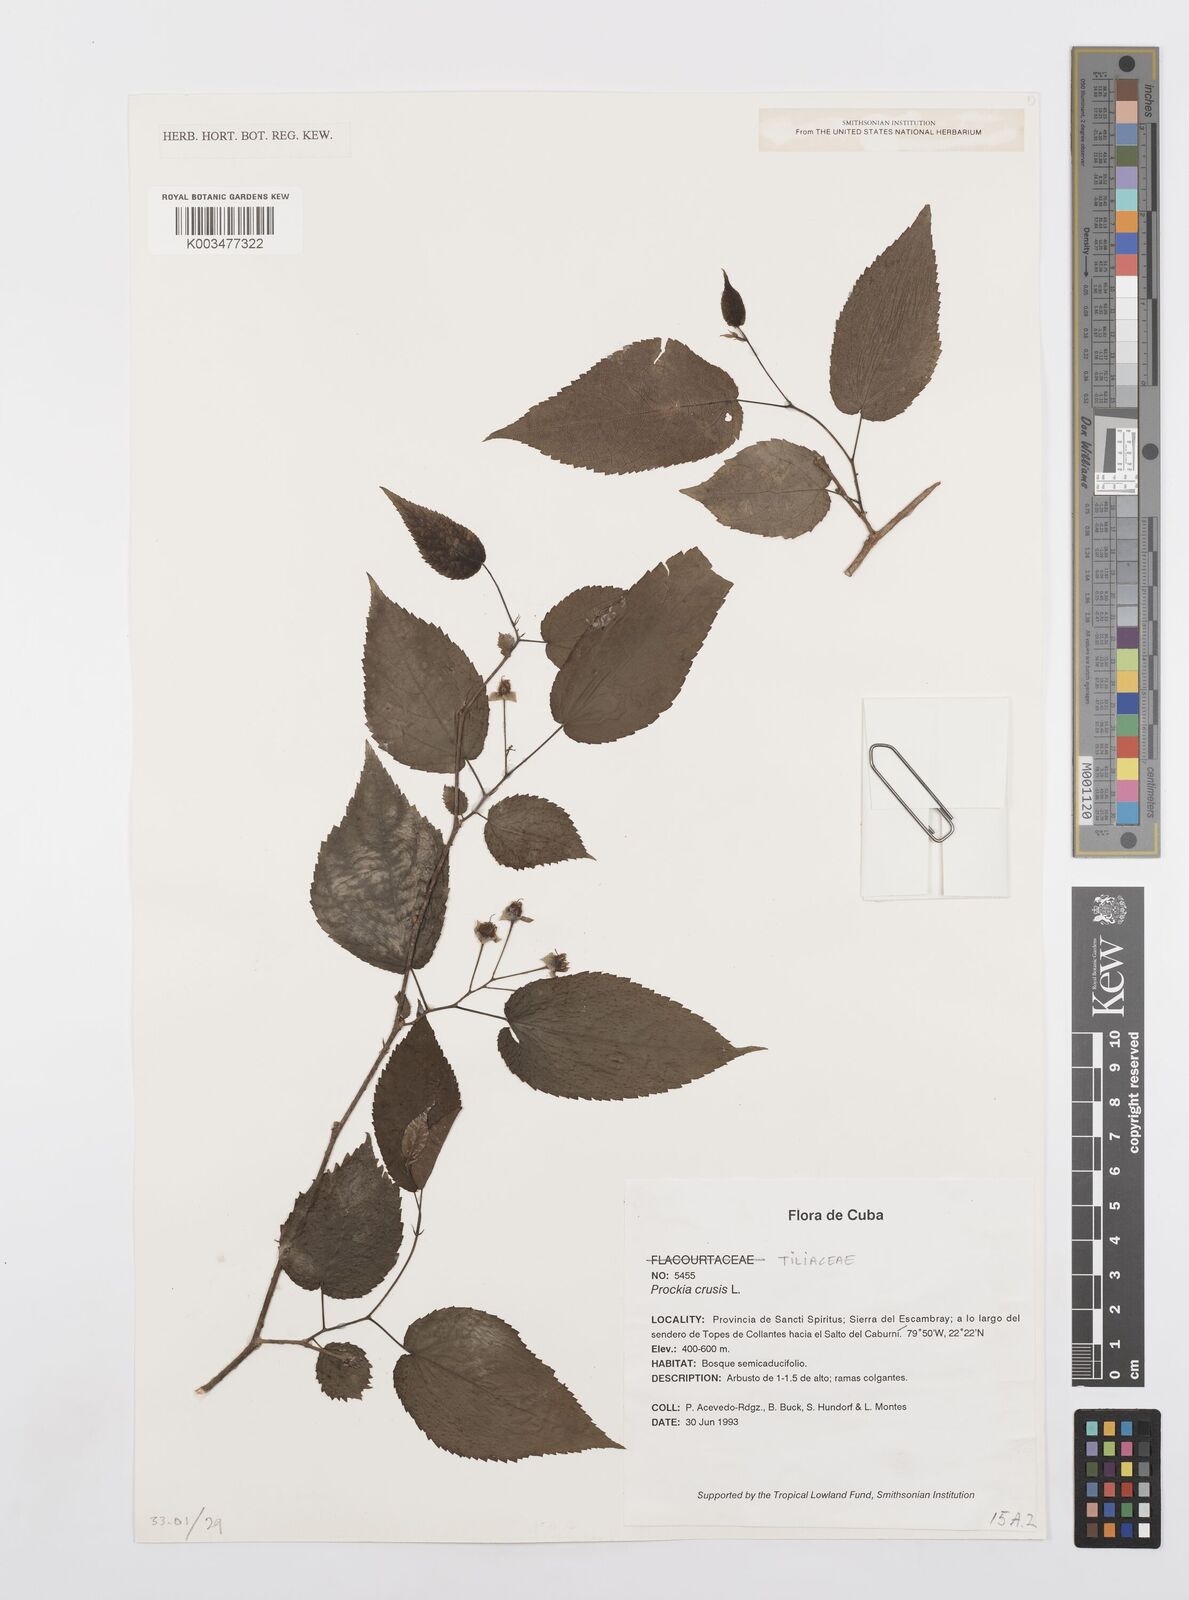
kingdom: Plantae
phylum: Tracheophyta
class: Magnoliopsida
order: Malpighiales
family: Salicaceae
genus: Prockia
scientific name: Prockia crucis
